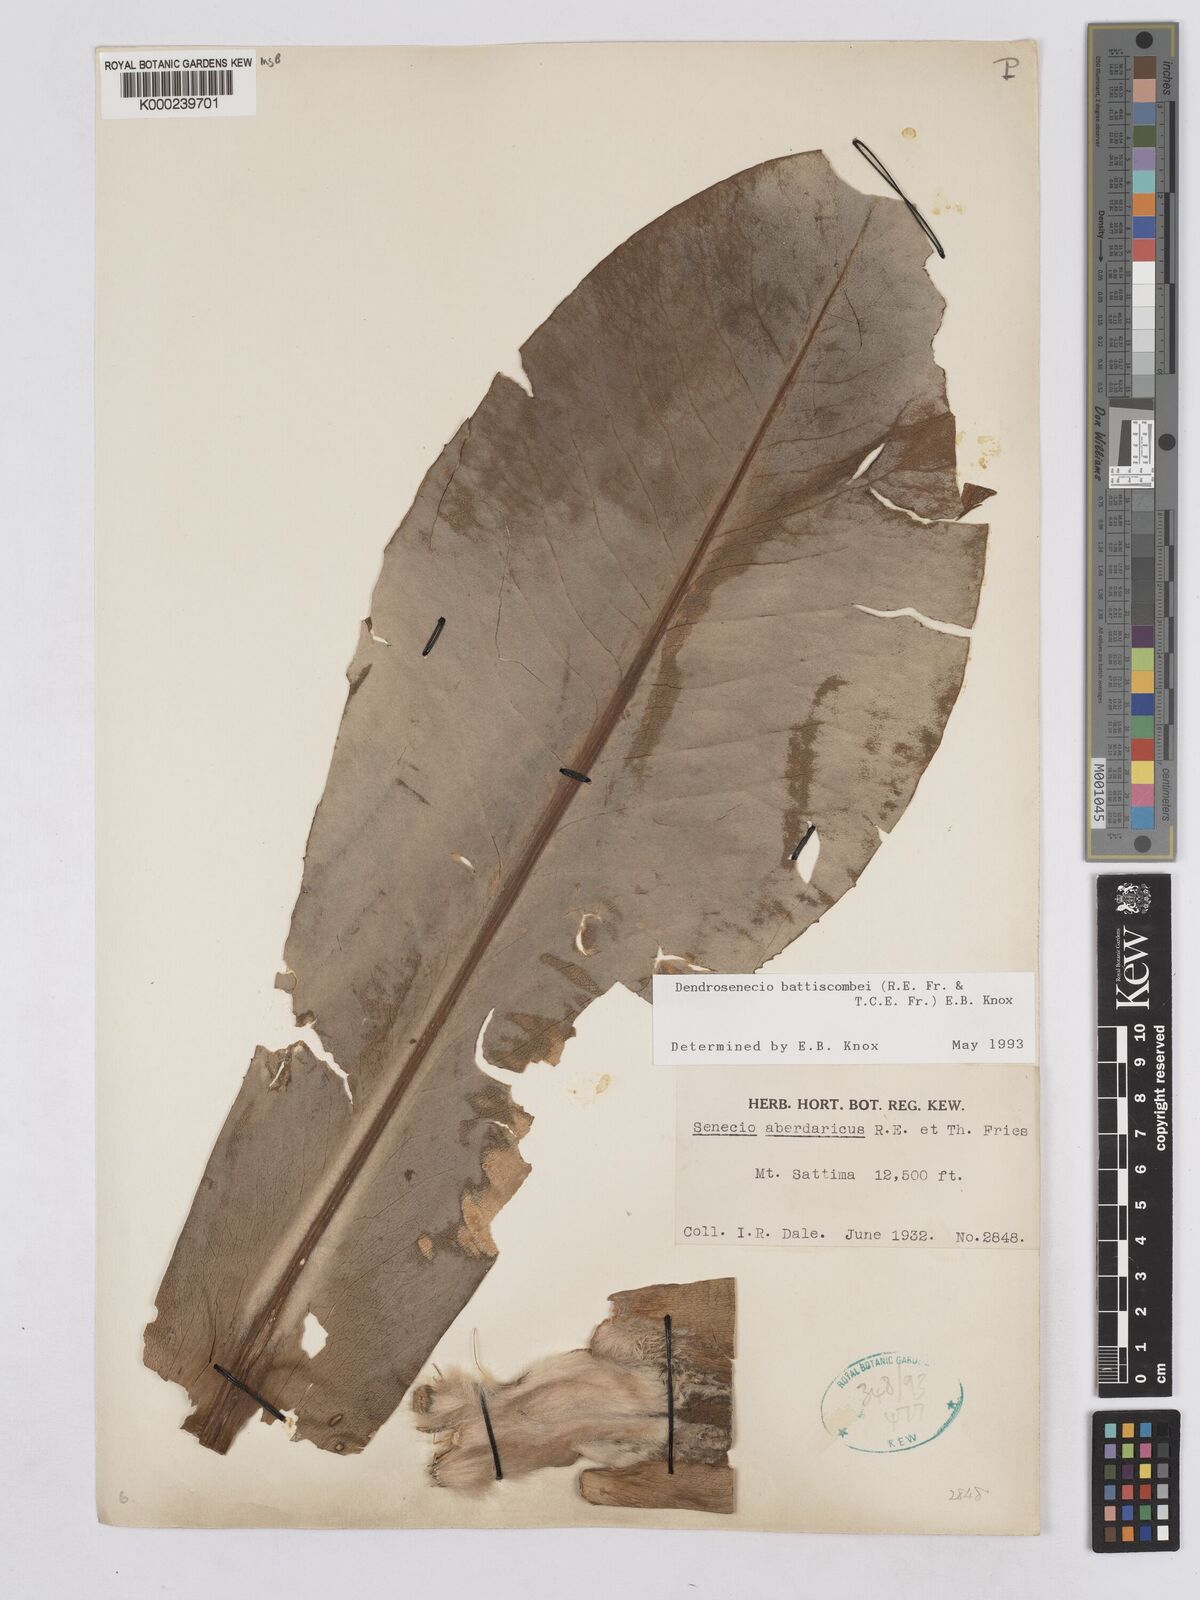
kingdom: Plantae
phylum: Tracheophyta
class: Magnoliopsida
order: Asterales
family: Asteraceae
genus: Dendrosenecio
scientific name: Dendrosenecio battiscombei
